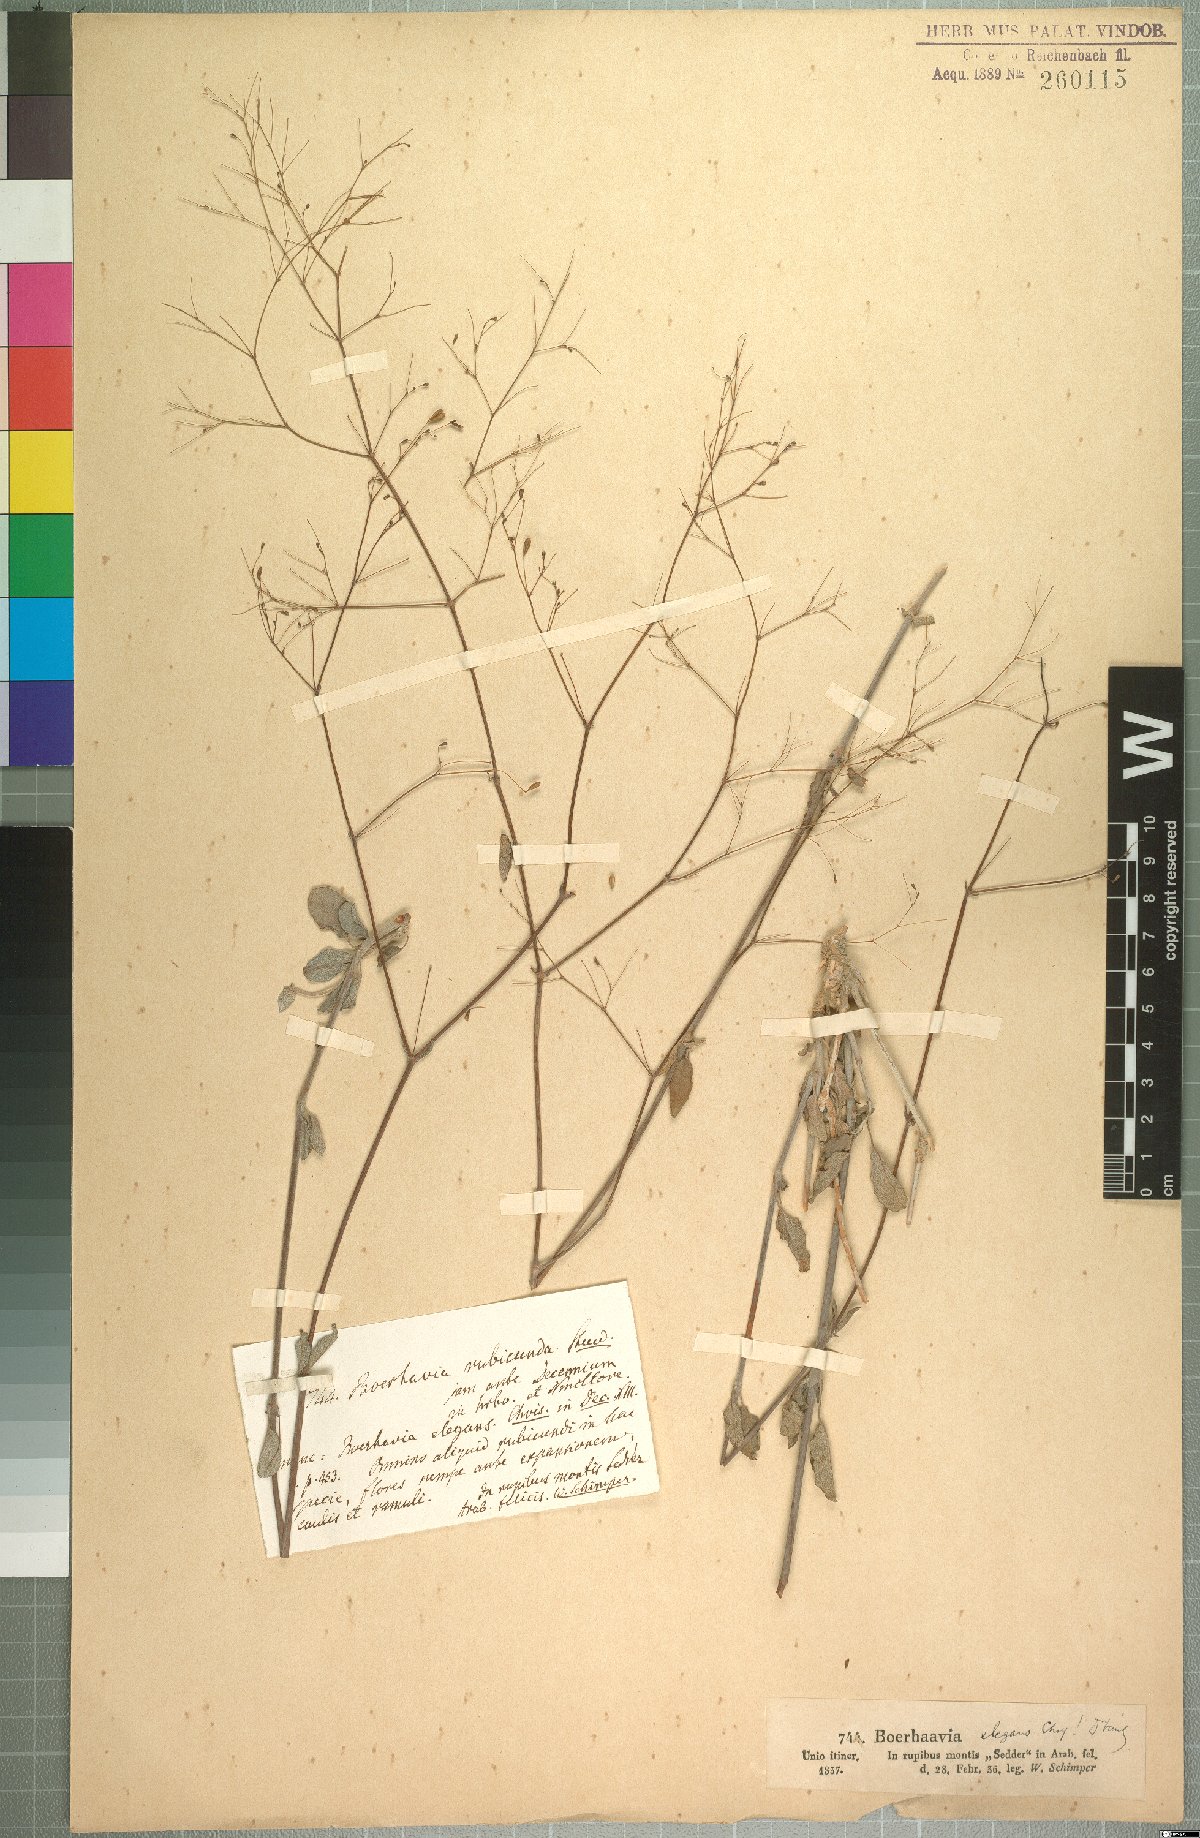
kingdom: Plantae
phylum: Tracheophyta
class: Magnoliopsida
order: Caryophyllales
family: Nyctaginaceae
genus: Boerhavia
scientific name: Boerhavia elegans
